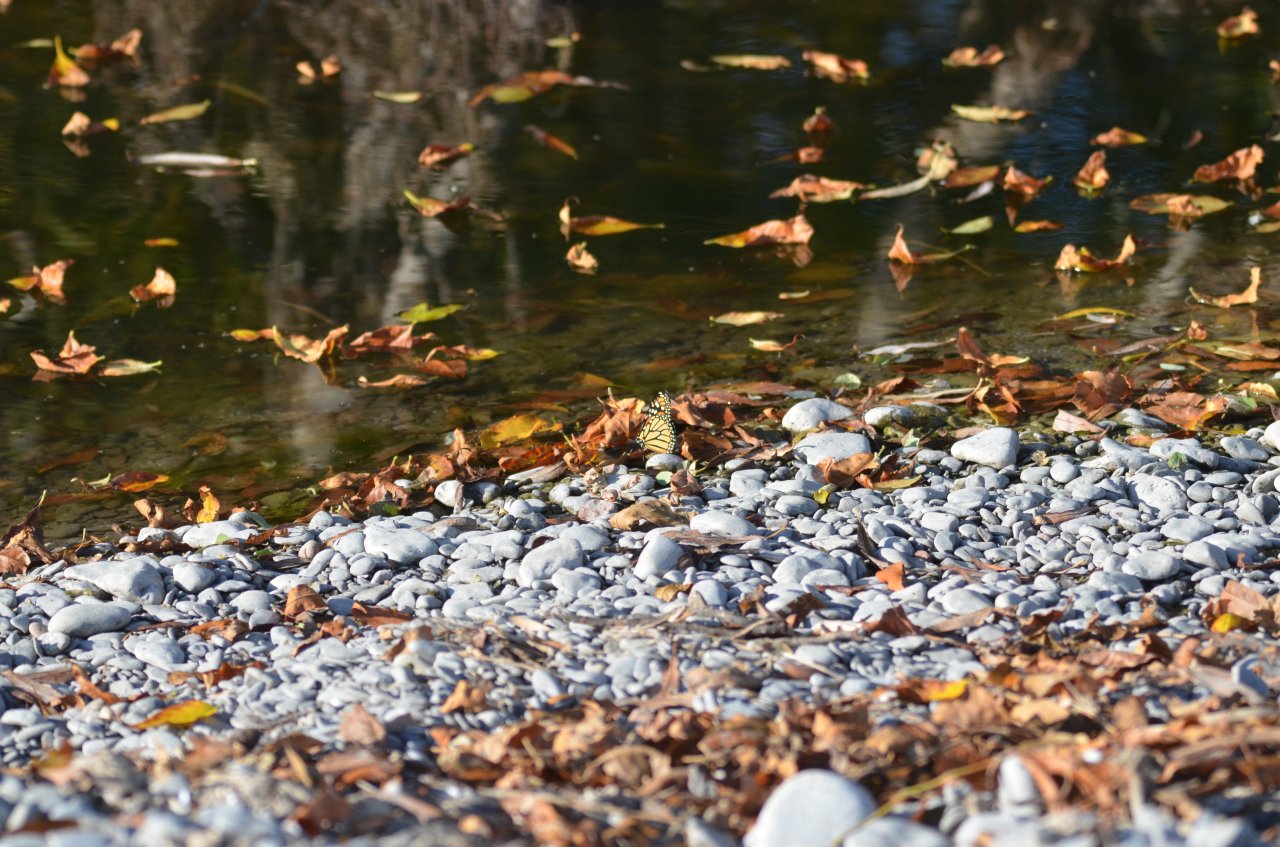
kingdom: Animalia
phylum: Arthropoda
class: Insecta
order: Lepidoptera
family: Nymphalidae
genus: Danaus
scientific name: Danaus plexippus
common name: Monarch
